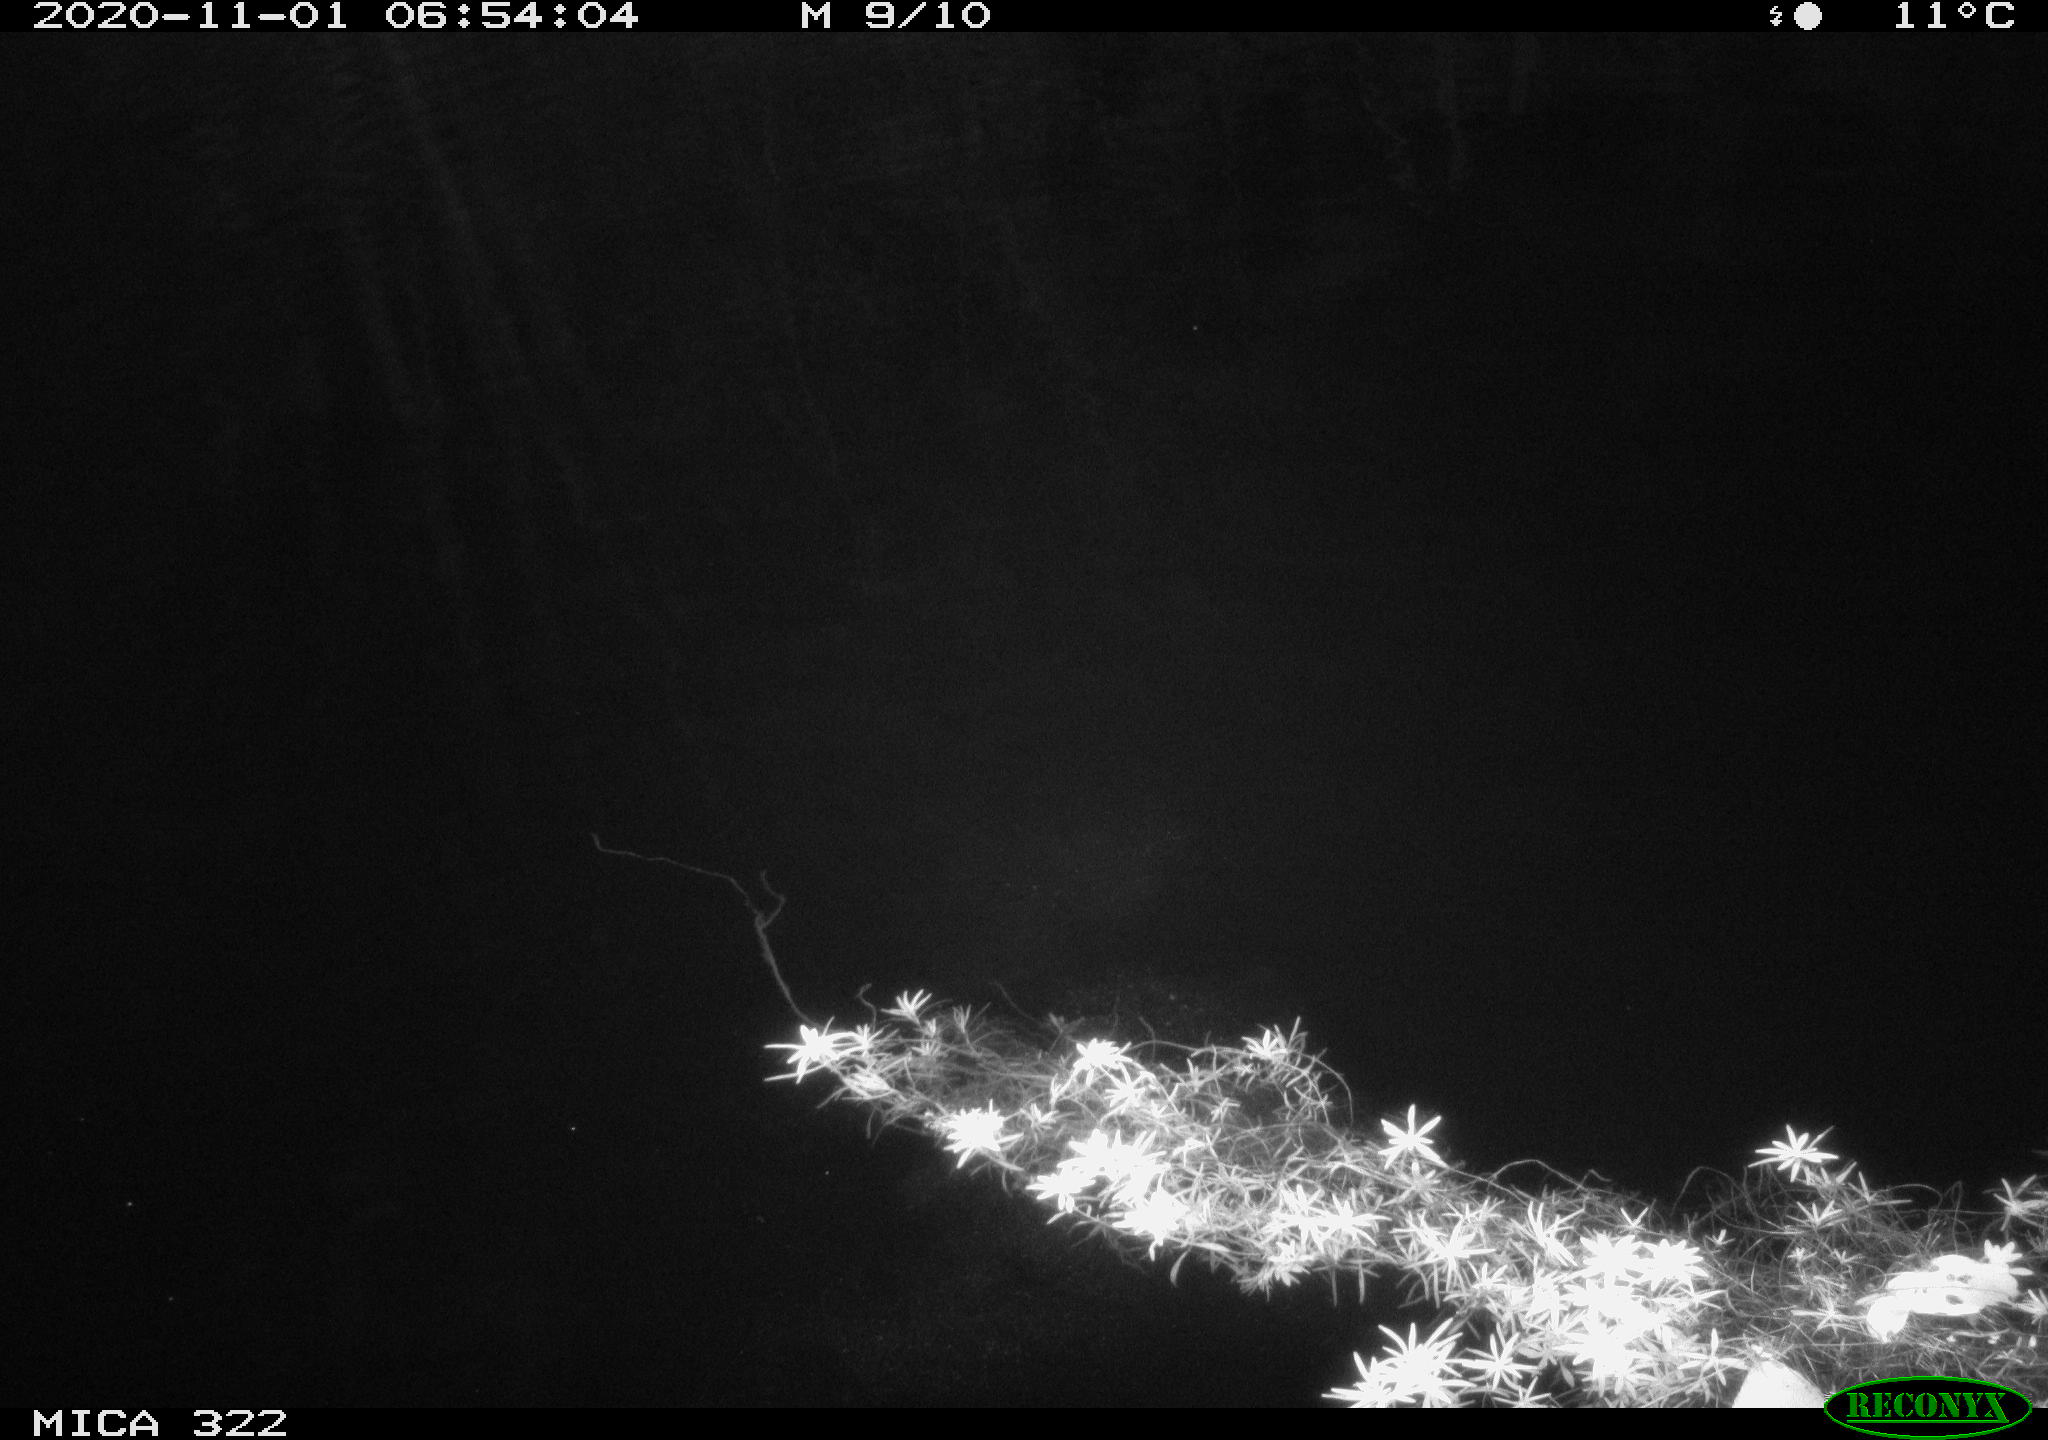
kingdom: Animalia
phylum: Chordata
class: Mammalia
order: Rodentia
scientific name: Rodentia
